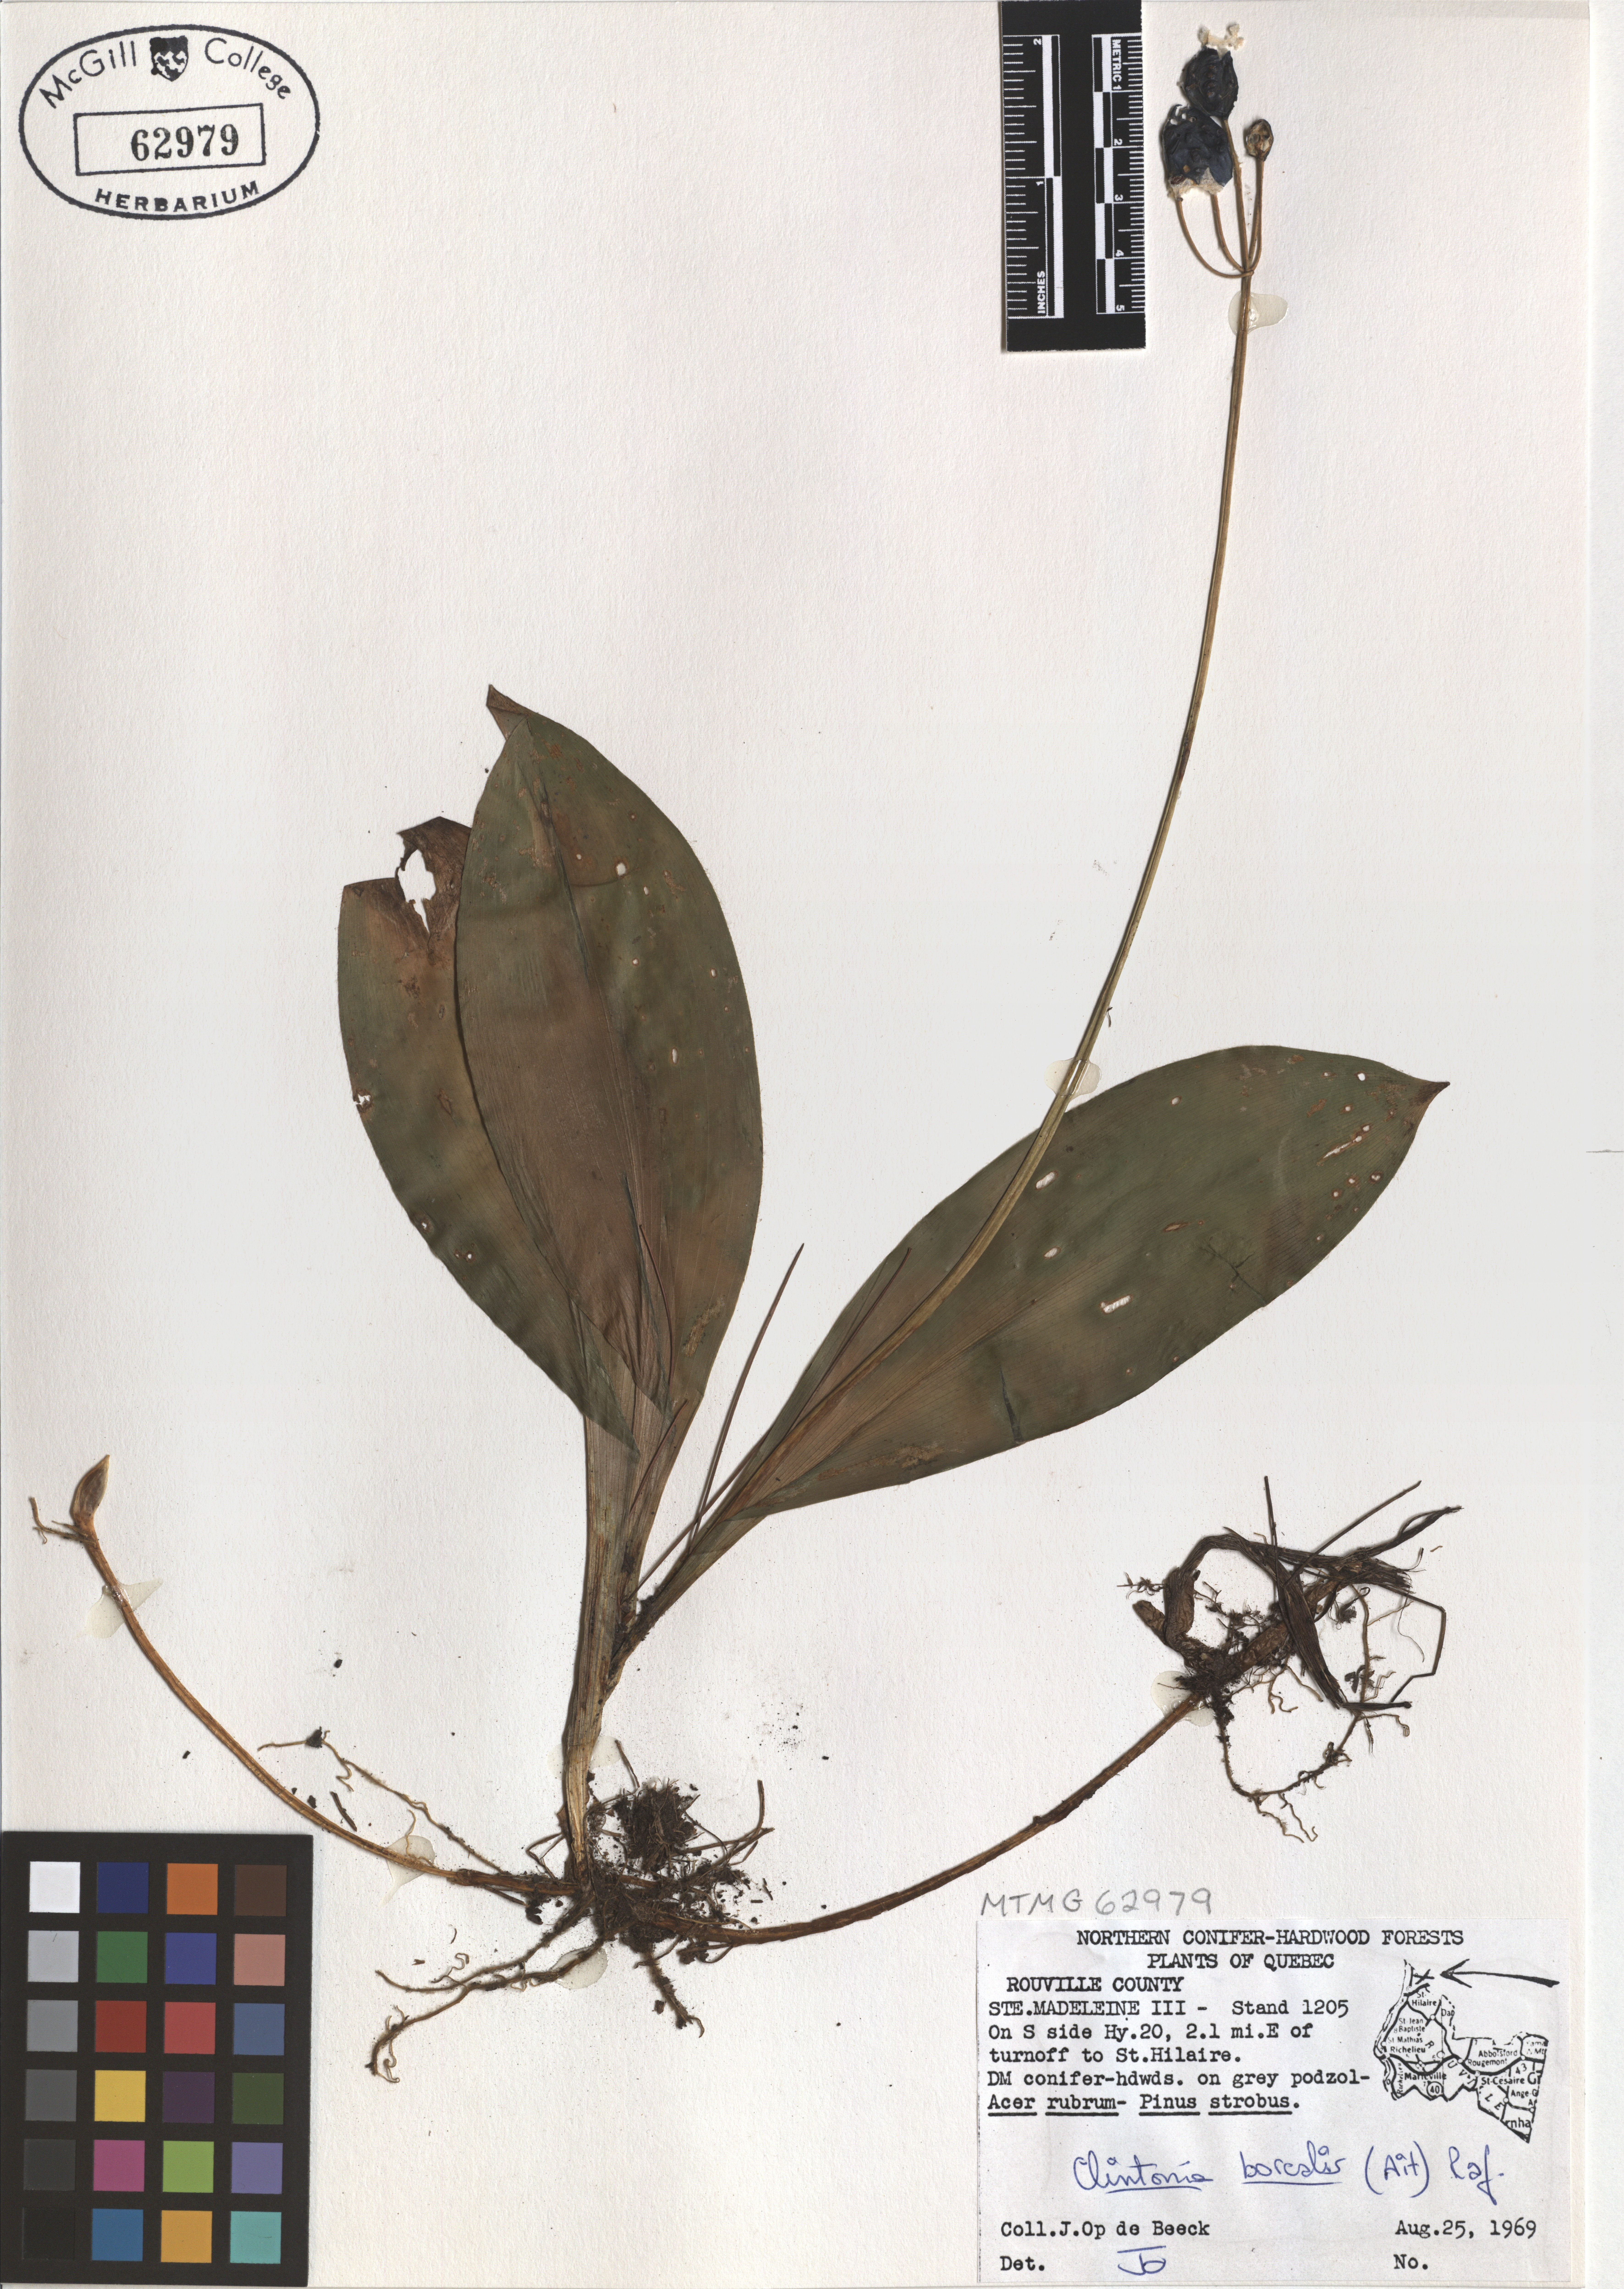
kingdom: Plantae
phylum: Tracheophyta
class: Liliopsida
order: Liliales
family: Liliaceae
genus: Clintonia
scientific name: Clintonia borealis
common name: Yellow clintonia
